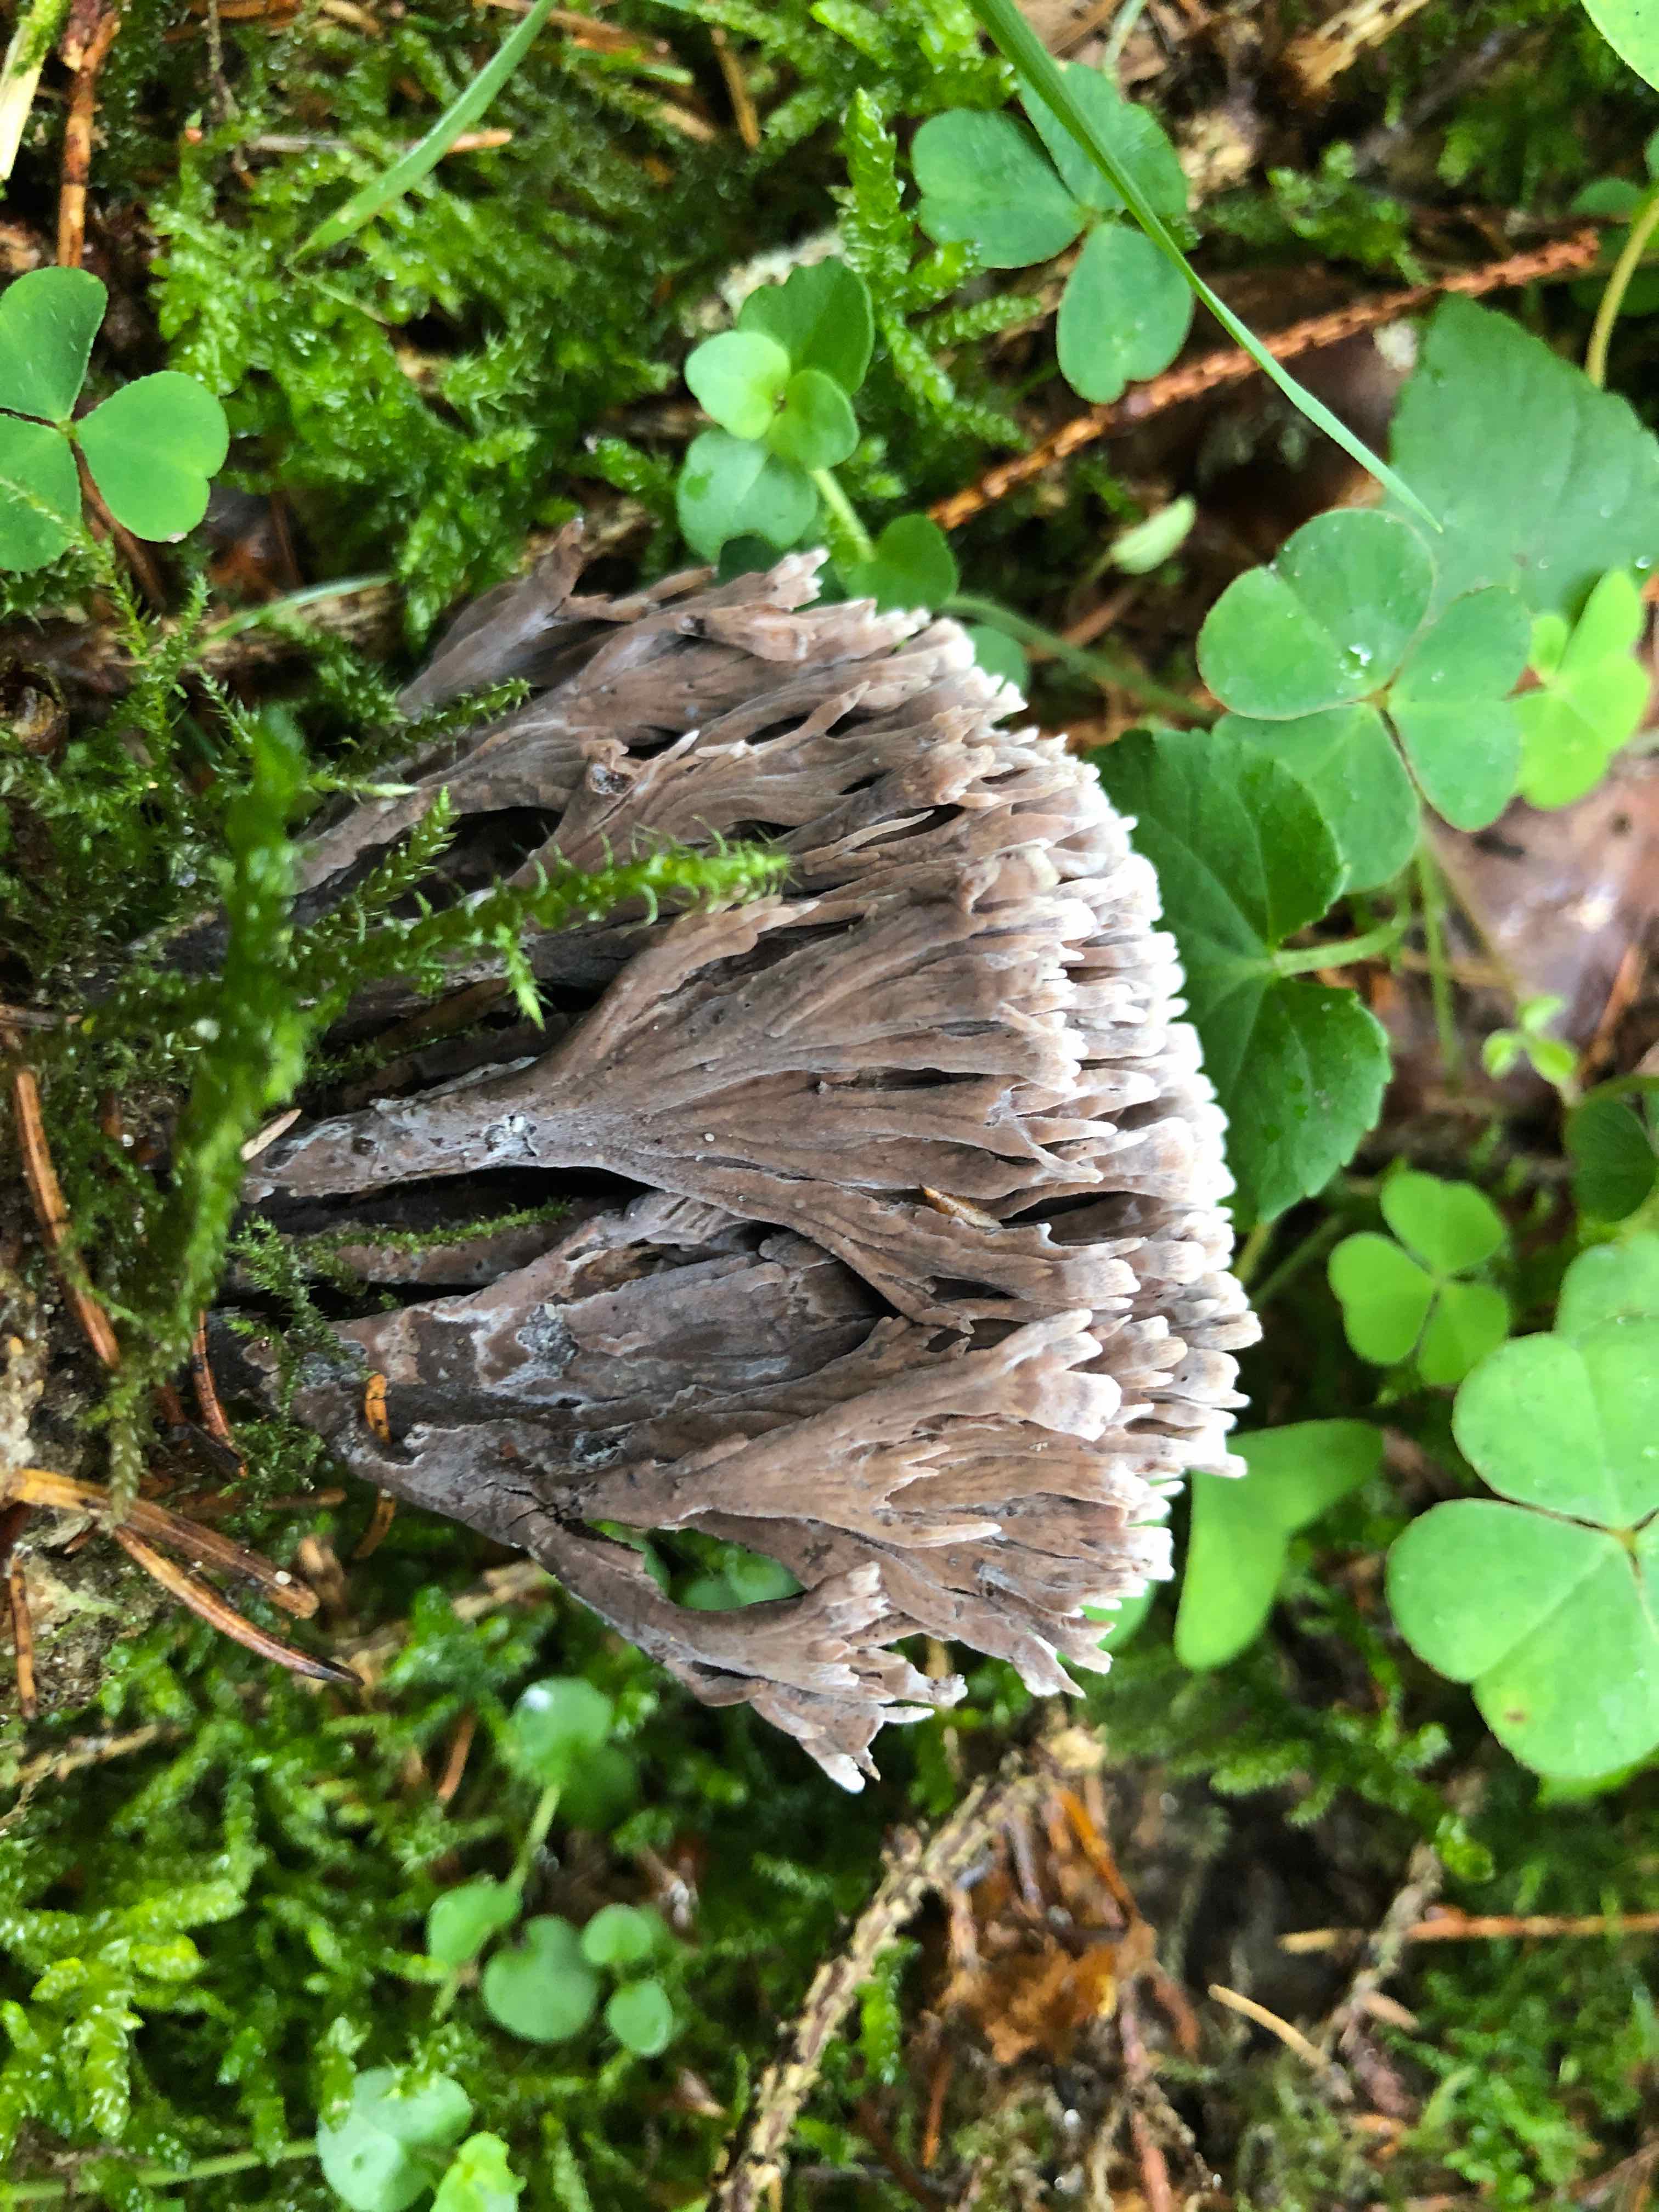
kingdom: Fungi
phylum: Basidiomycota
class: Agaricomycetes
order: Thelephorales
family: Thelephoraceae
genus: Thelephora
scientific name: Thelephora palmata
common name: grenet frynsesvamp
